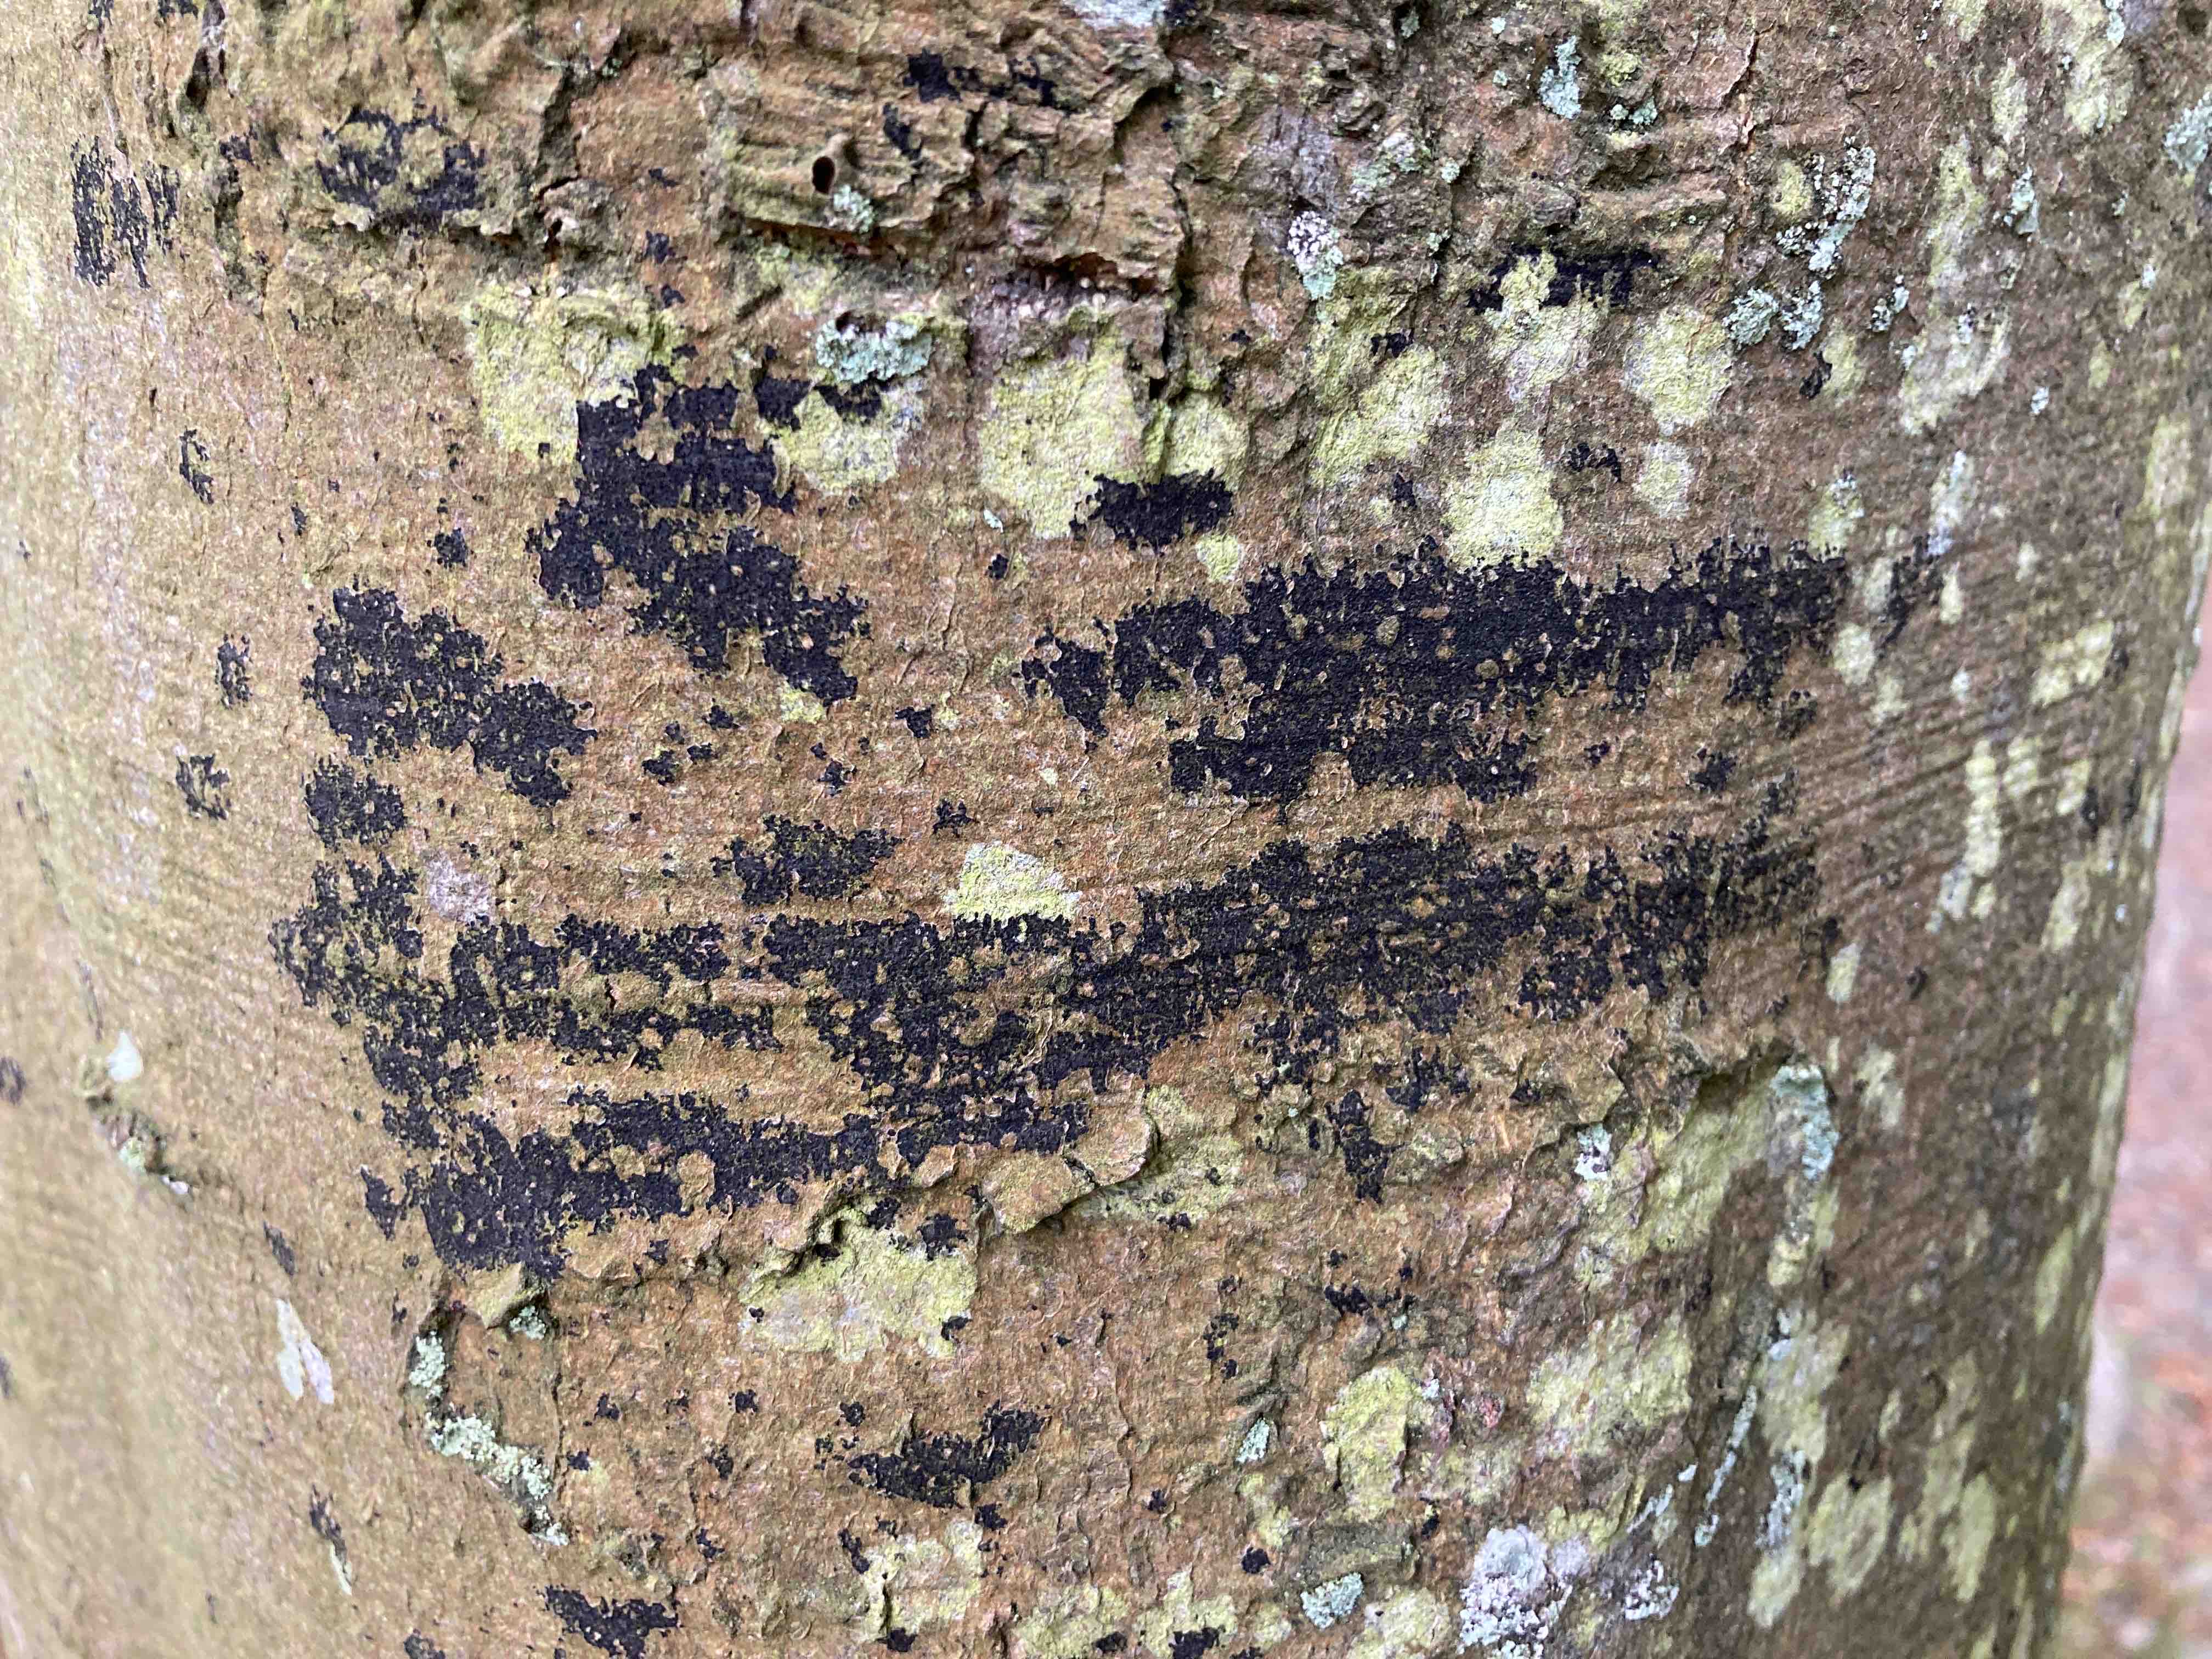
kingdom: Fungi
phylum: Ascomycota
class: Leotiomycetes
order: Rhytismatales
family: Ascodichaenaceae
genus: Ascodichaena
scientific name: Ascodichaena rugosa
